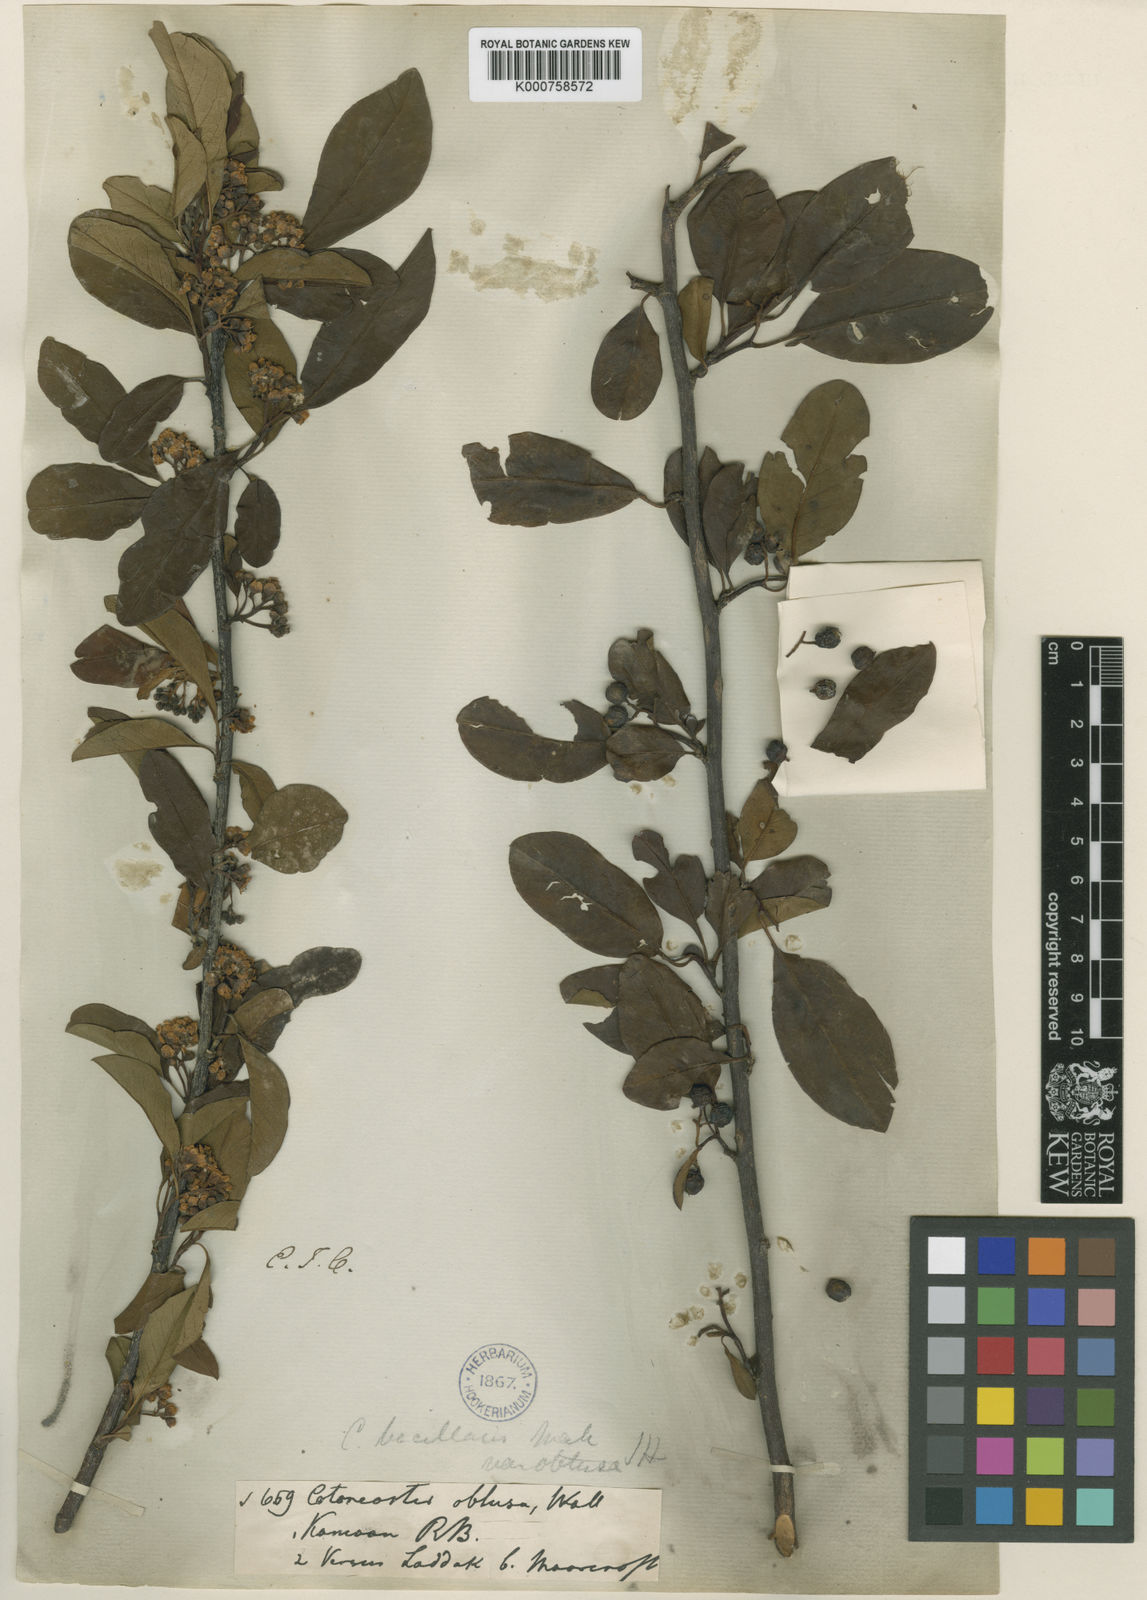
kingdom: Plantae
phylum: Tracheophyta
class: Magnoliopsida
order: Rosales
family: Rosaceae
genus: Cotoneaster
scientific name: Cotoneaster affinis
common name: Purpleberry cotoneaster
